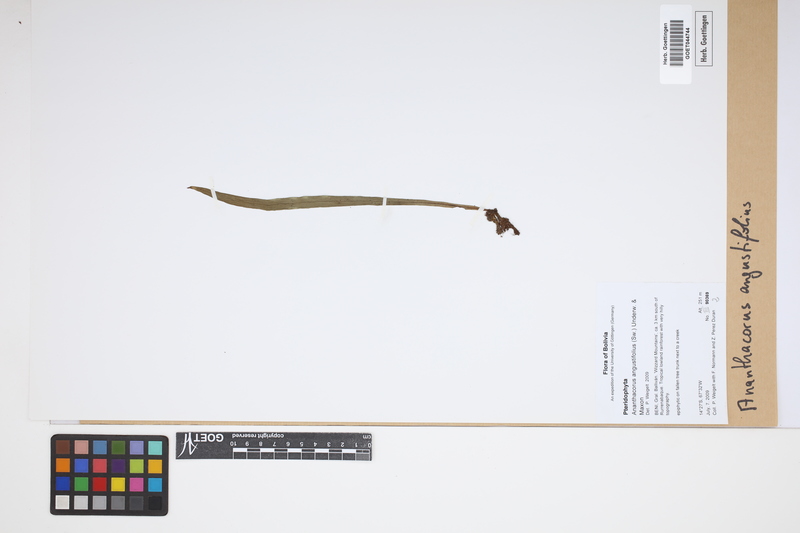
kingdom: Plantae
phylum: Tracheophyta
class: Polypodiopsida
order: Polypodiales
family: Pteridaceae
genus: Ananthacorus
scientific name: Ananthacorus angustifolius
